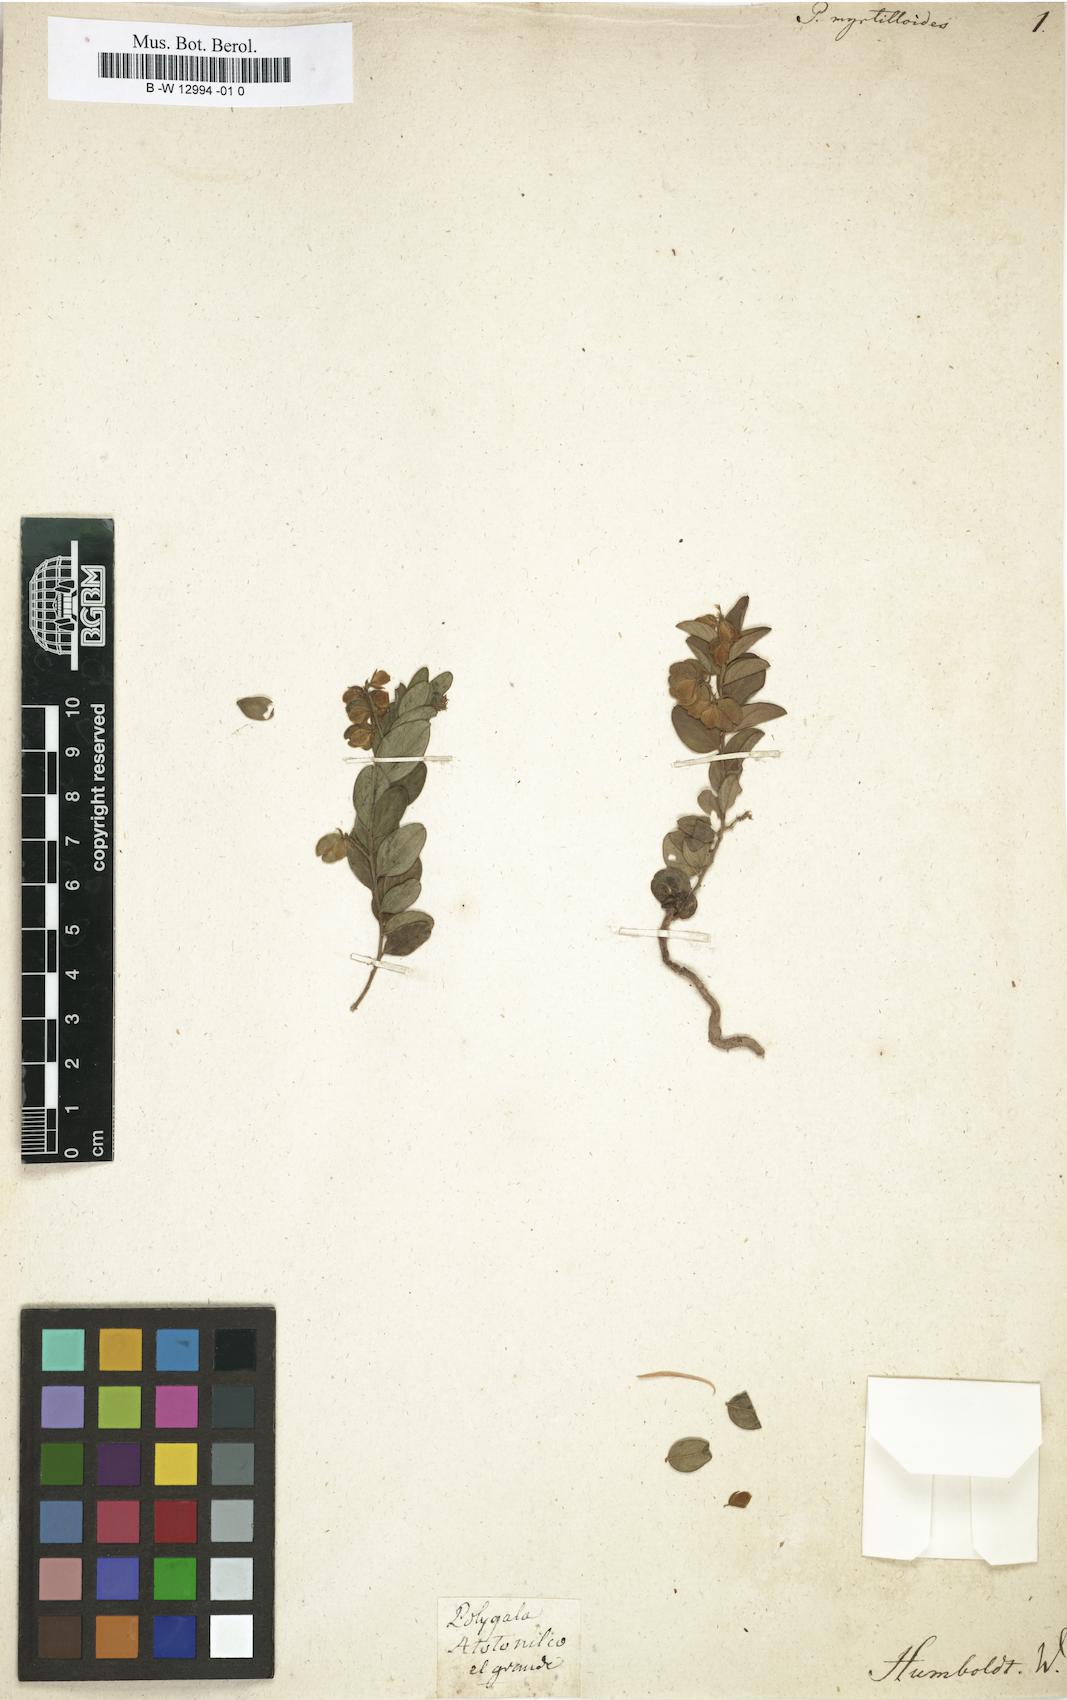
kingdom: Plantae
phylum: Tracheophyta
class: Magnoliopsida
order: Fabales
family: Polygalaceae
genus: Hebecarpa
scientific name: Hebecarpa myrtilloides
